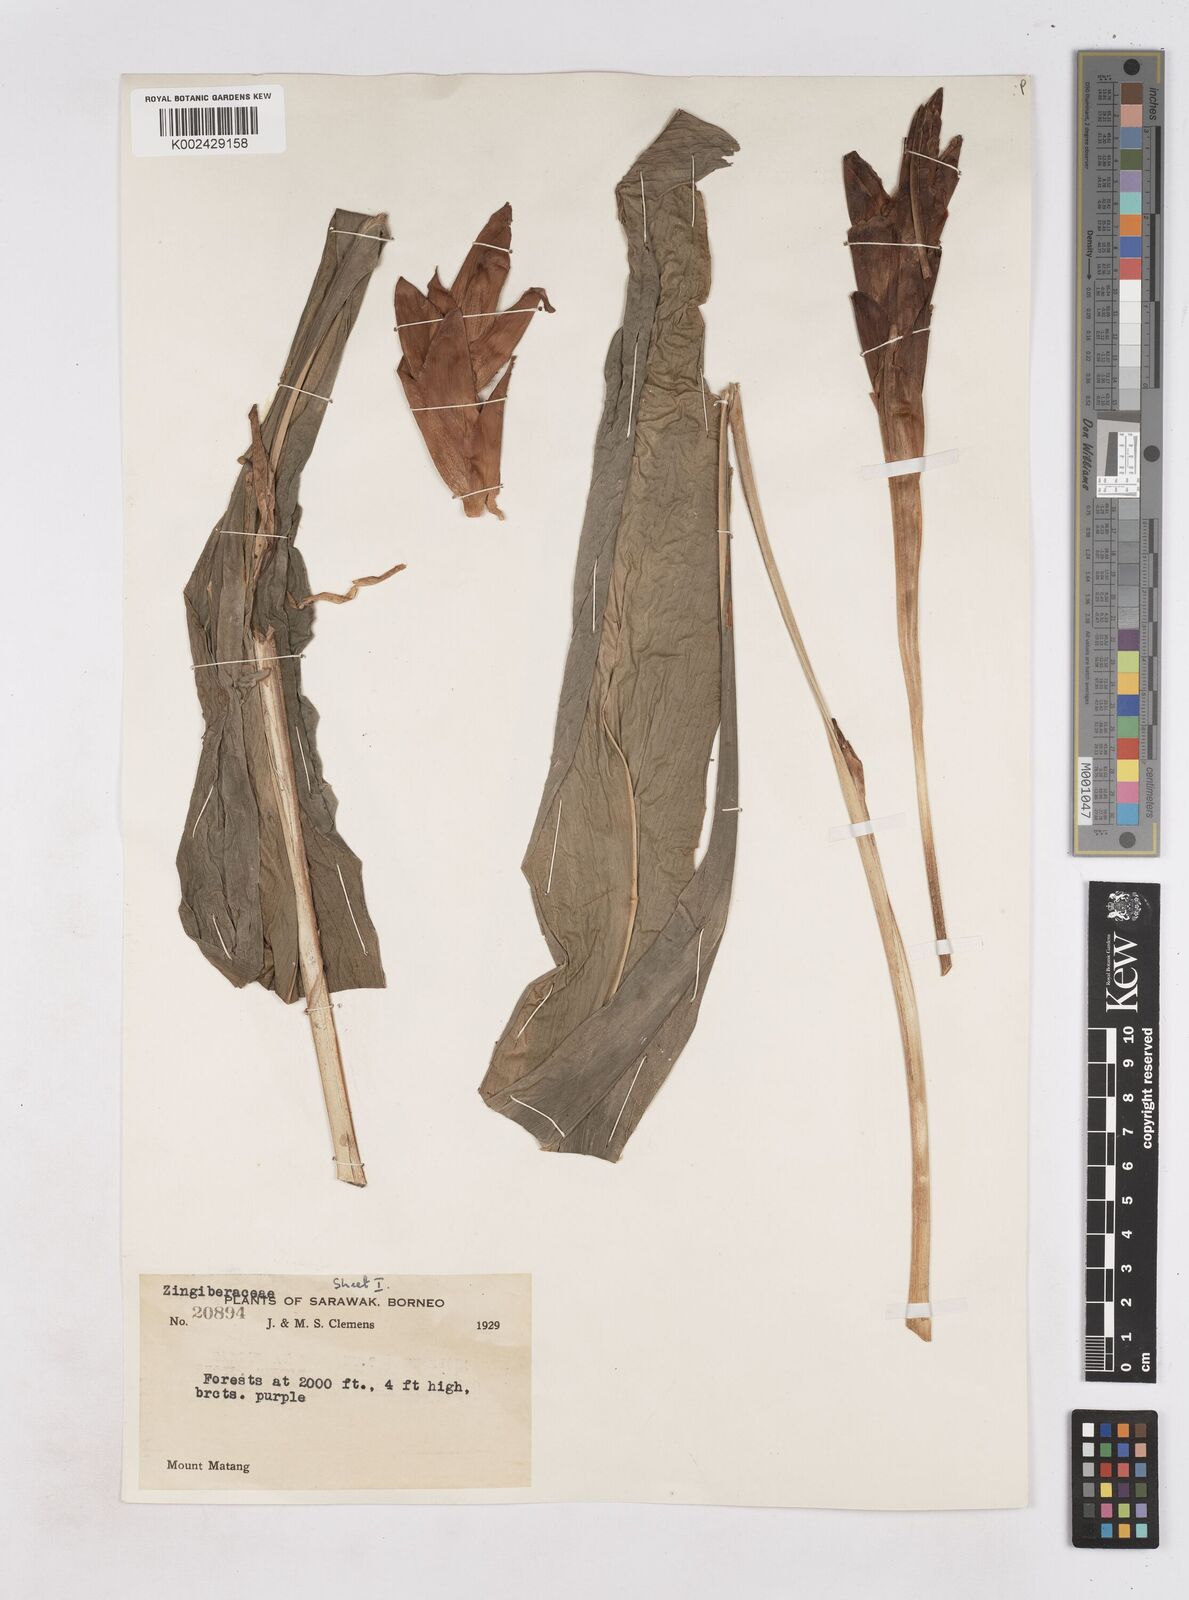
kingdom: Plantae
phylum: Tracheophyta
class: Liliopsida
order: Zingiberales
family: Zingiberaceae
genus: Zingiber
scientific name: Zingiber
